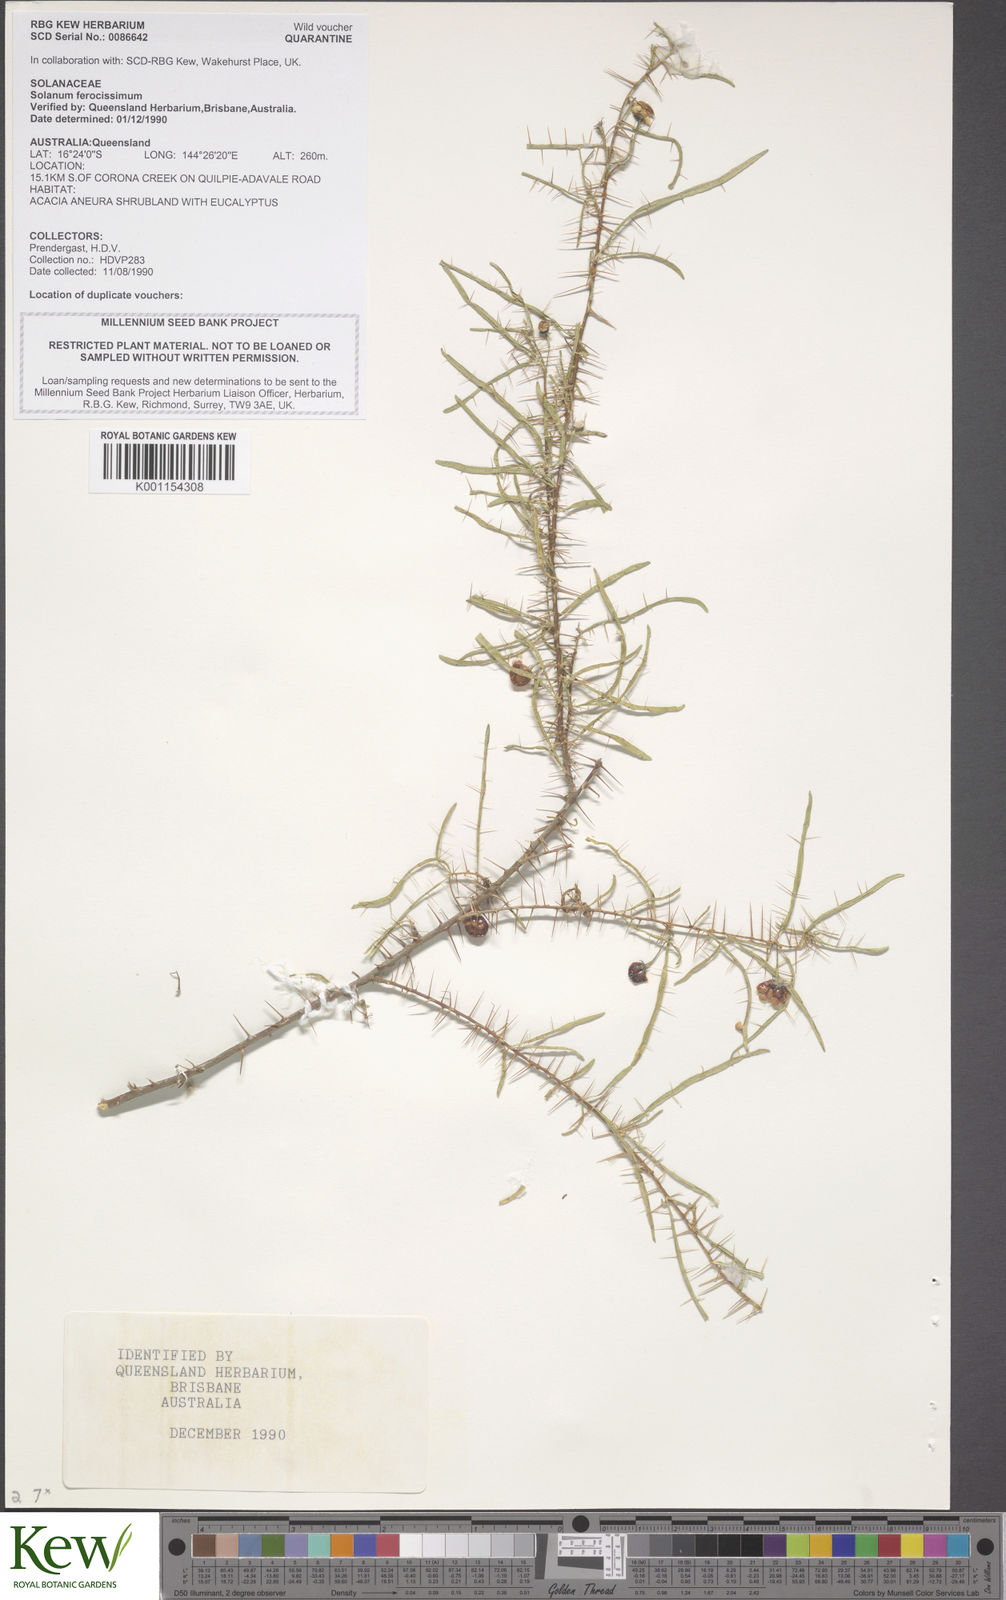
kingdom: Plantae
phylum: Tracheophyta
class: Magnoliopsida
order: Solanales
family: Solanaceae
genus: Solanum
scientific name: Solanum ferocissimum
